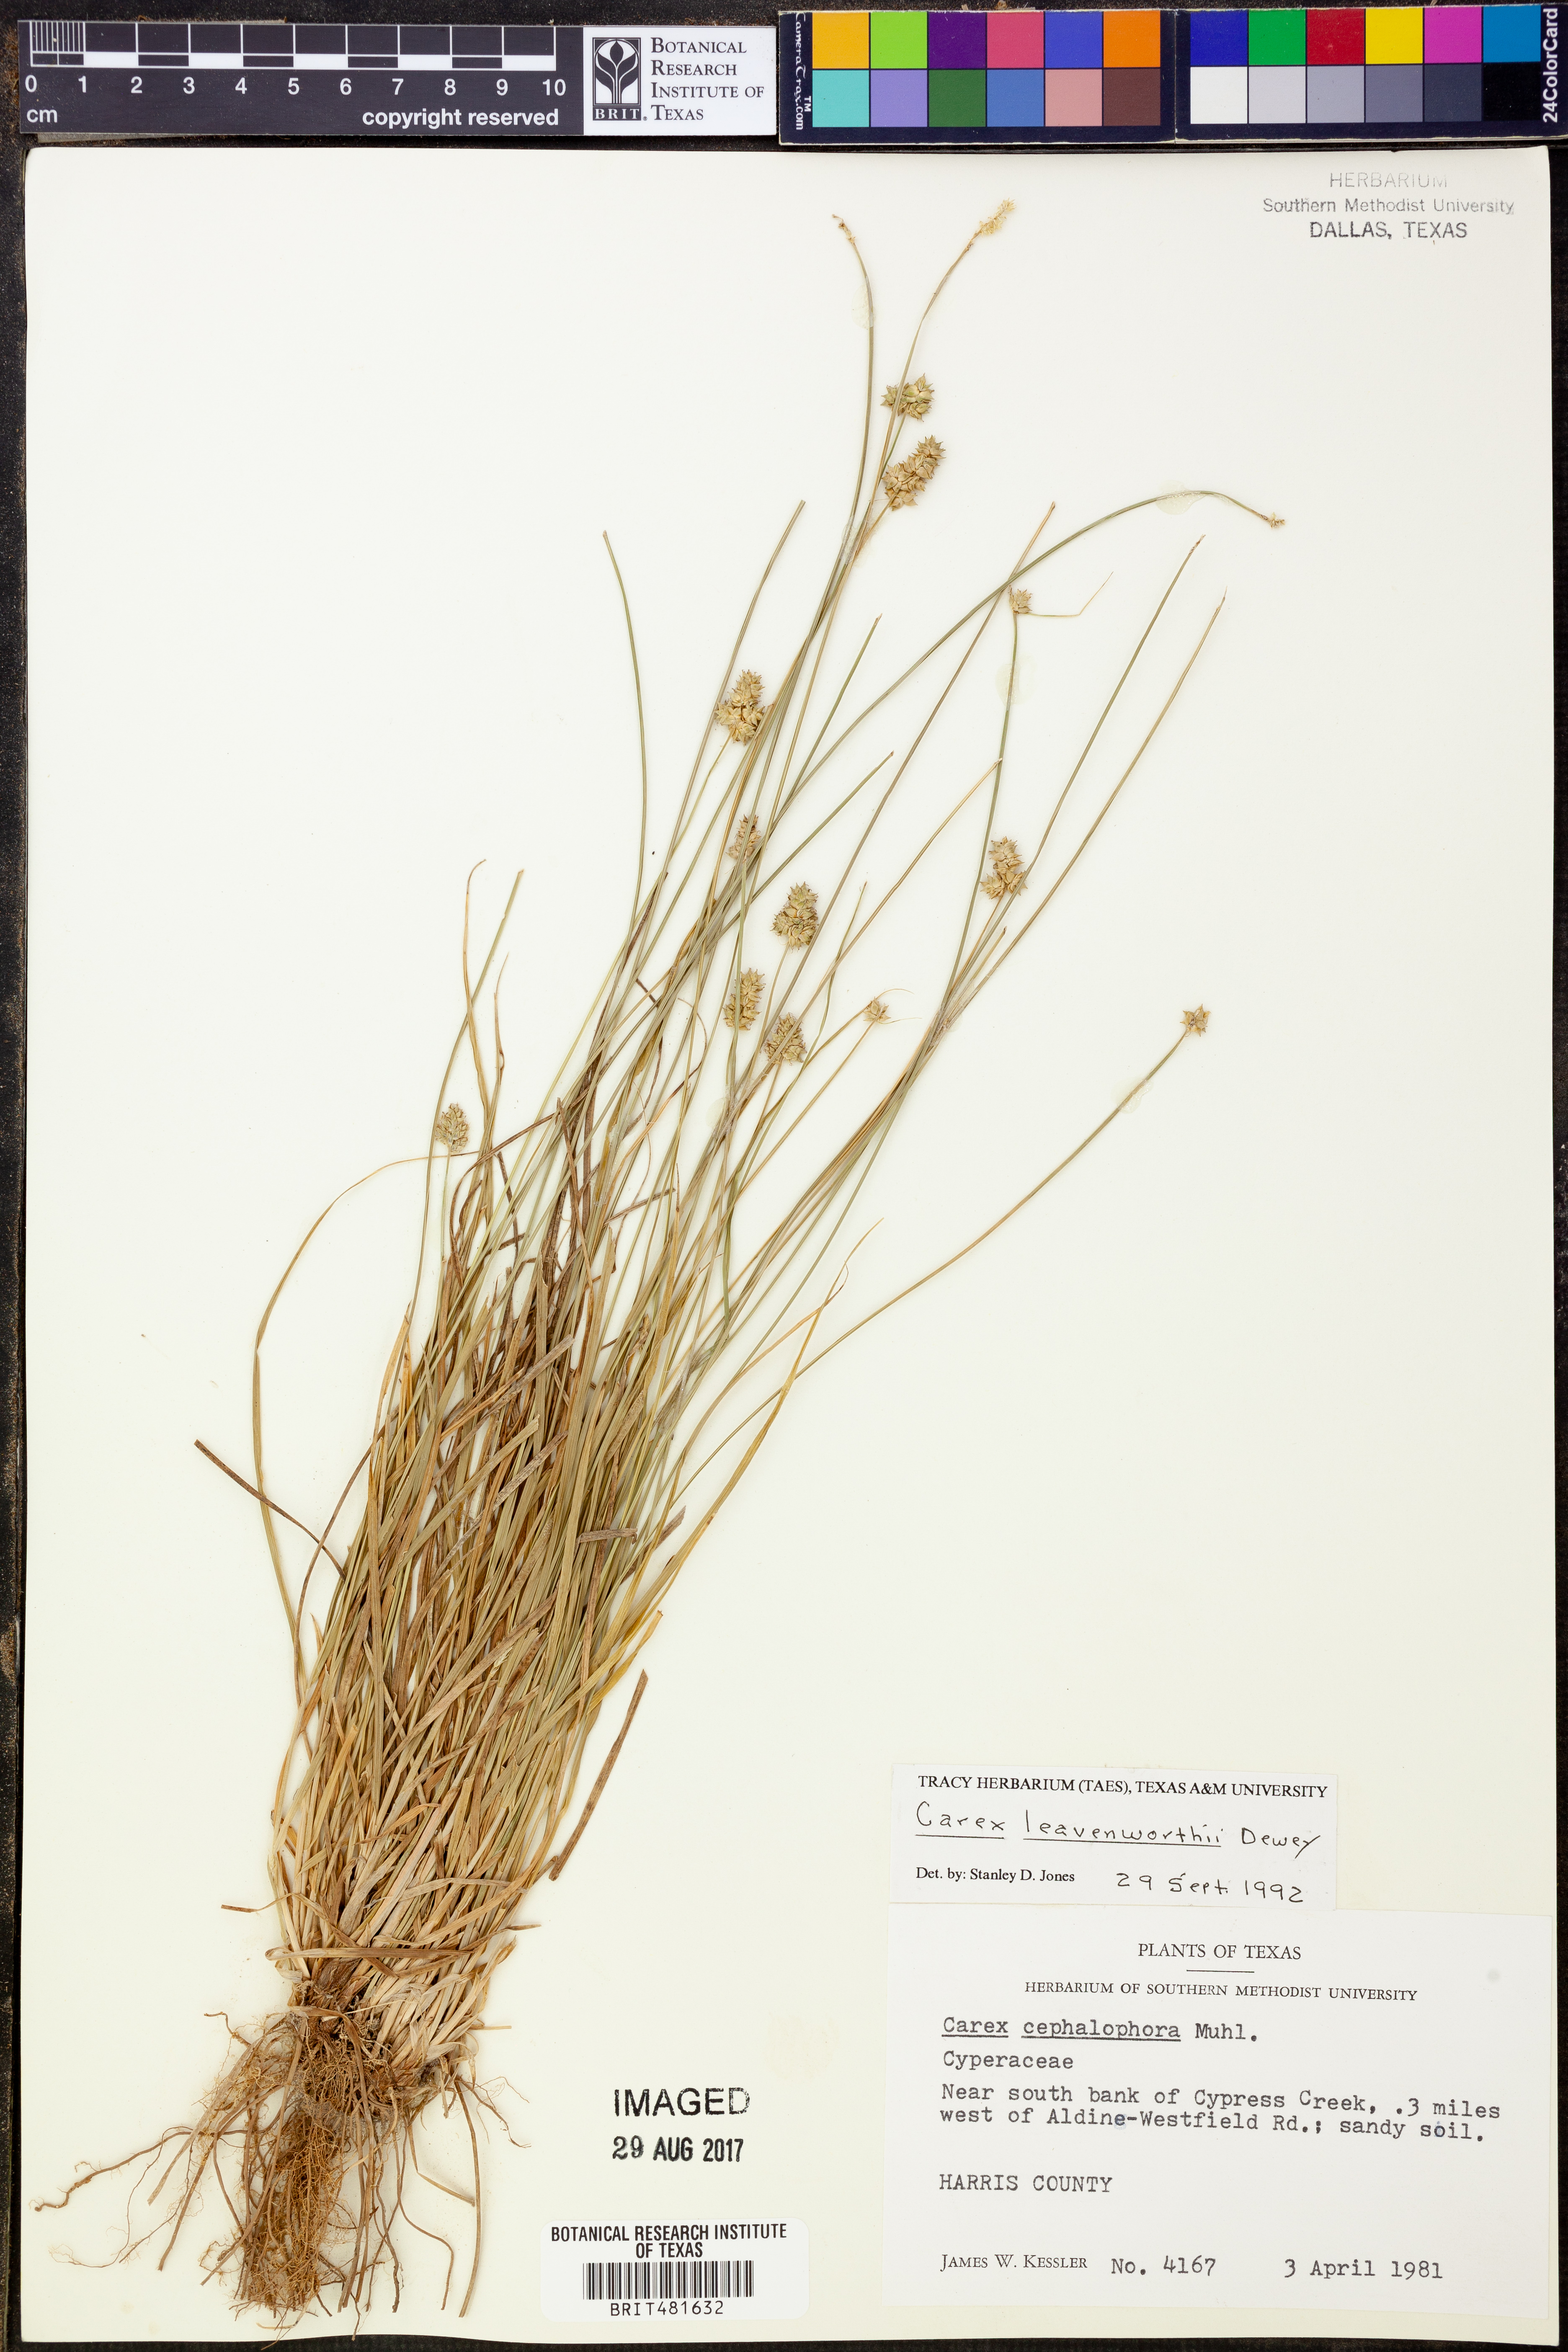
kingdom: Plantae
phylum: Tracheophyta
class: Liliopsida
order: Poales
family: Cyperaceae
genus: Carex
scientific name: Carex leavenworthii
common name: Leavenworth's bracted sedge
